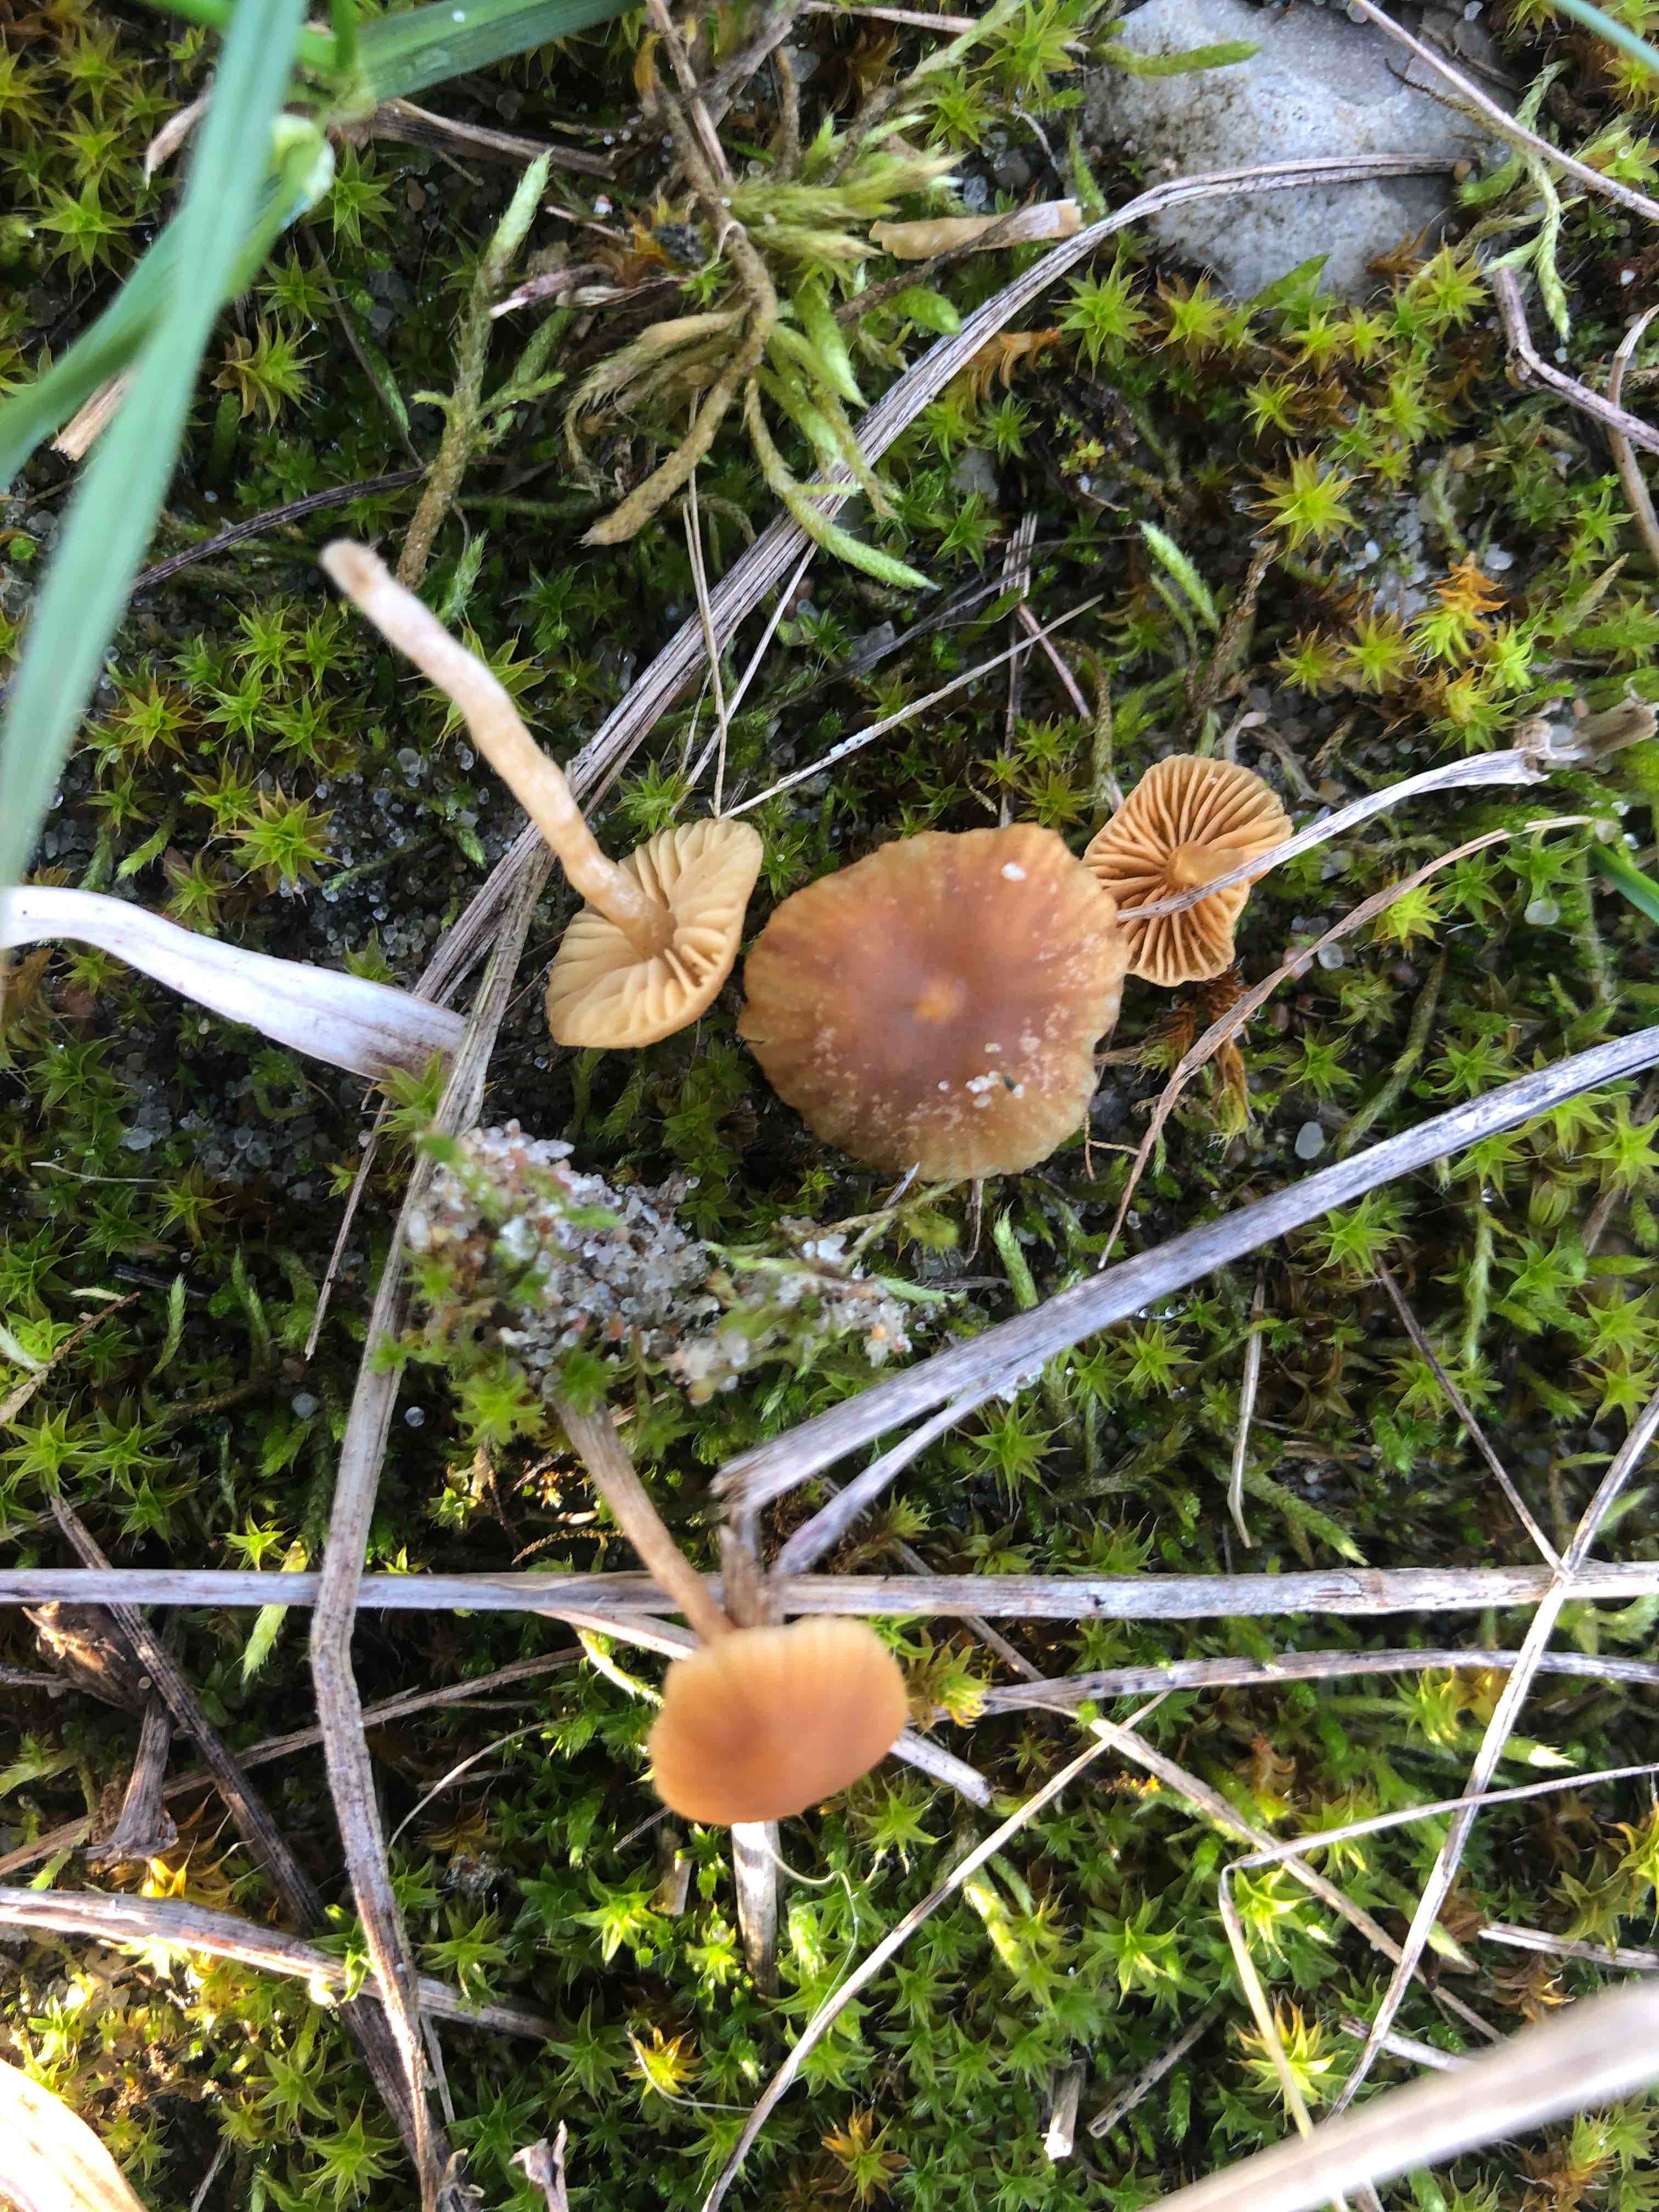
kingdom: Fungi
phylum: Basidiomycota
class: Agaricomycetes
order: Agaricales
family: Hymenogastraceae
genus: Galerina
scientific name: Galerina
